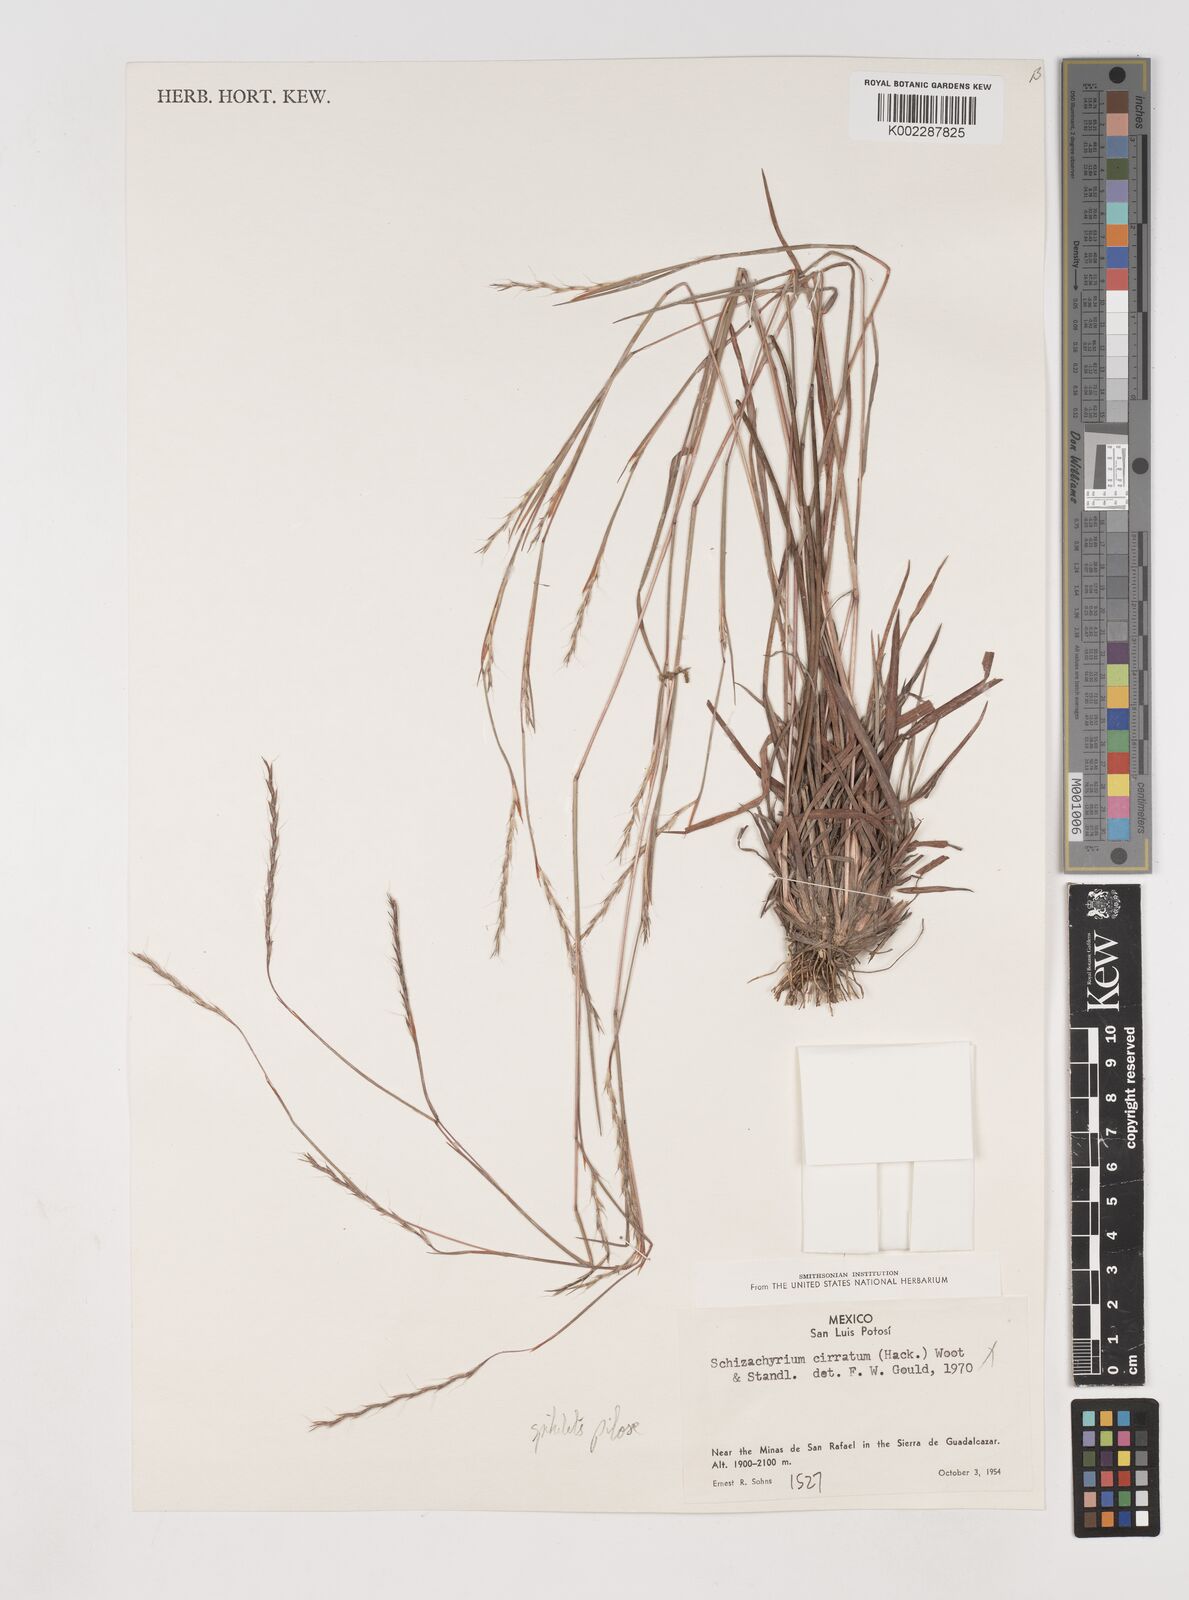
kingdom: Plantae
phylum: Tracheophyta
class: Liliopsida
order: Poales
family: Poaceae
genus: Schizachyrium
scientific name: Schizachyrium sanguineum
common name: Crimson bluestem
